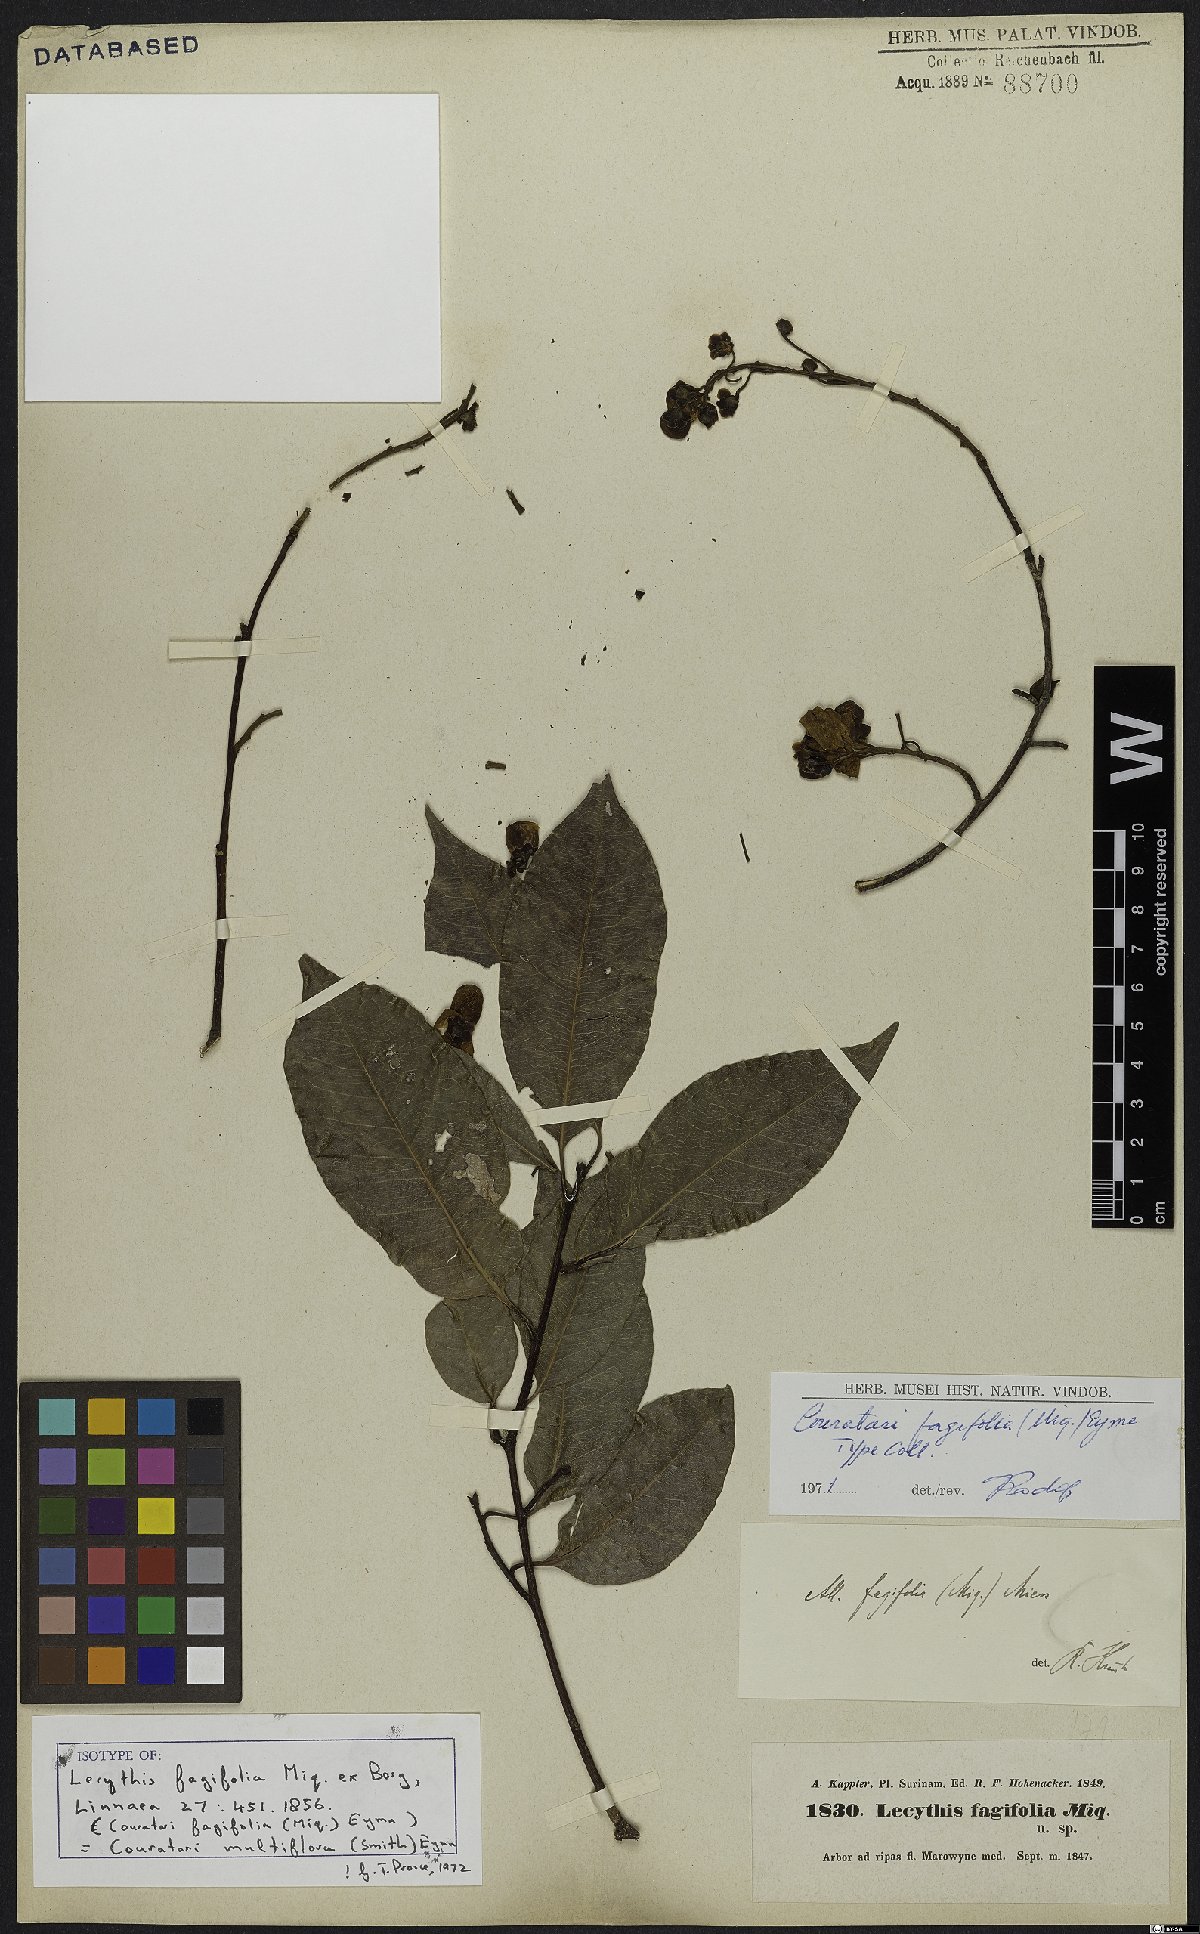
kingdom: Plantae
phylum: Tracheophyta
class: Magnoliopsida
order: Ericales
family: Lecythidaceae
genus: Couratari
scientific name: Couratari multiflora
